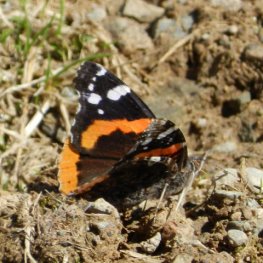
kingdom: Animalia
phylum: Arthropoda
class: Insecta
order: Lepidoptera
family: Nymphalidae
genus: Vanessa
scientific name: Vanessa atalanta
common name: Red Admiral
